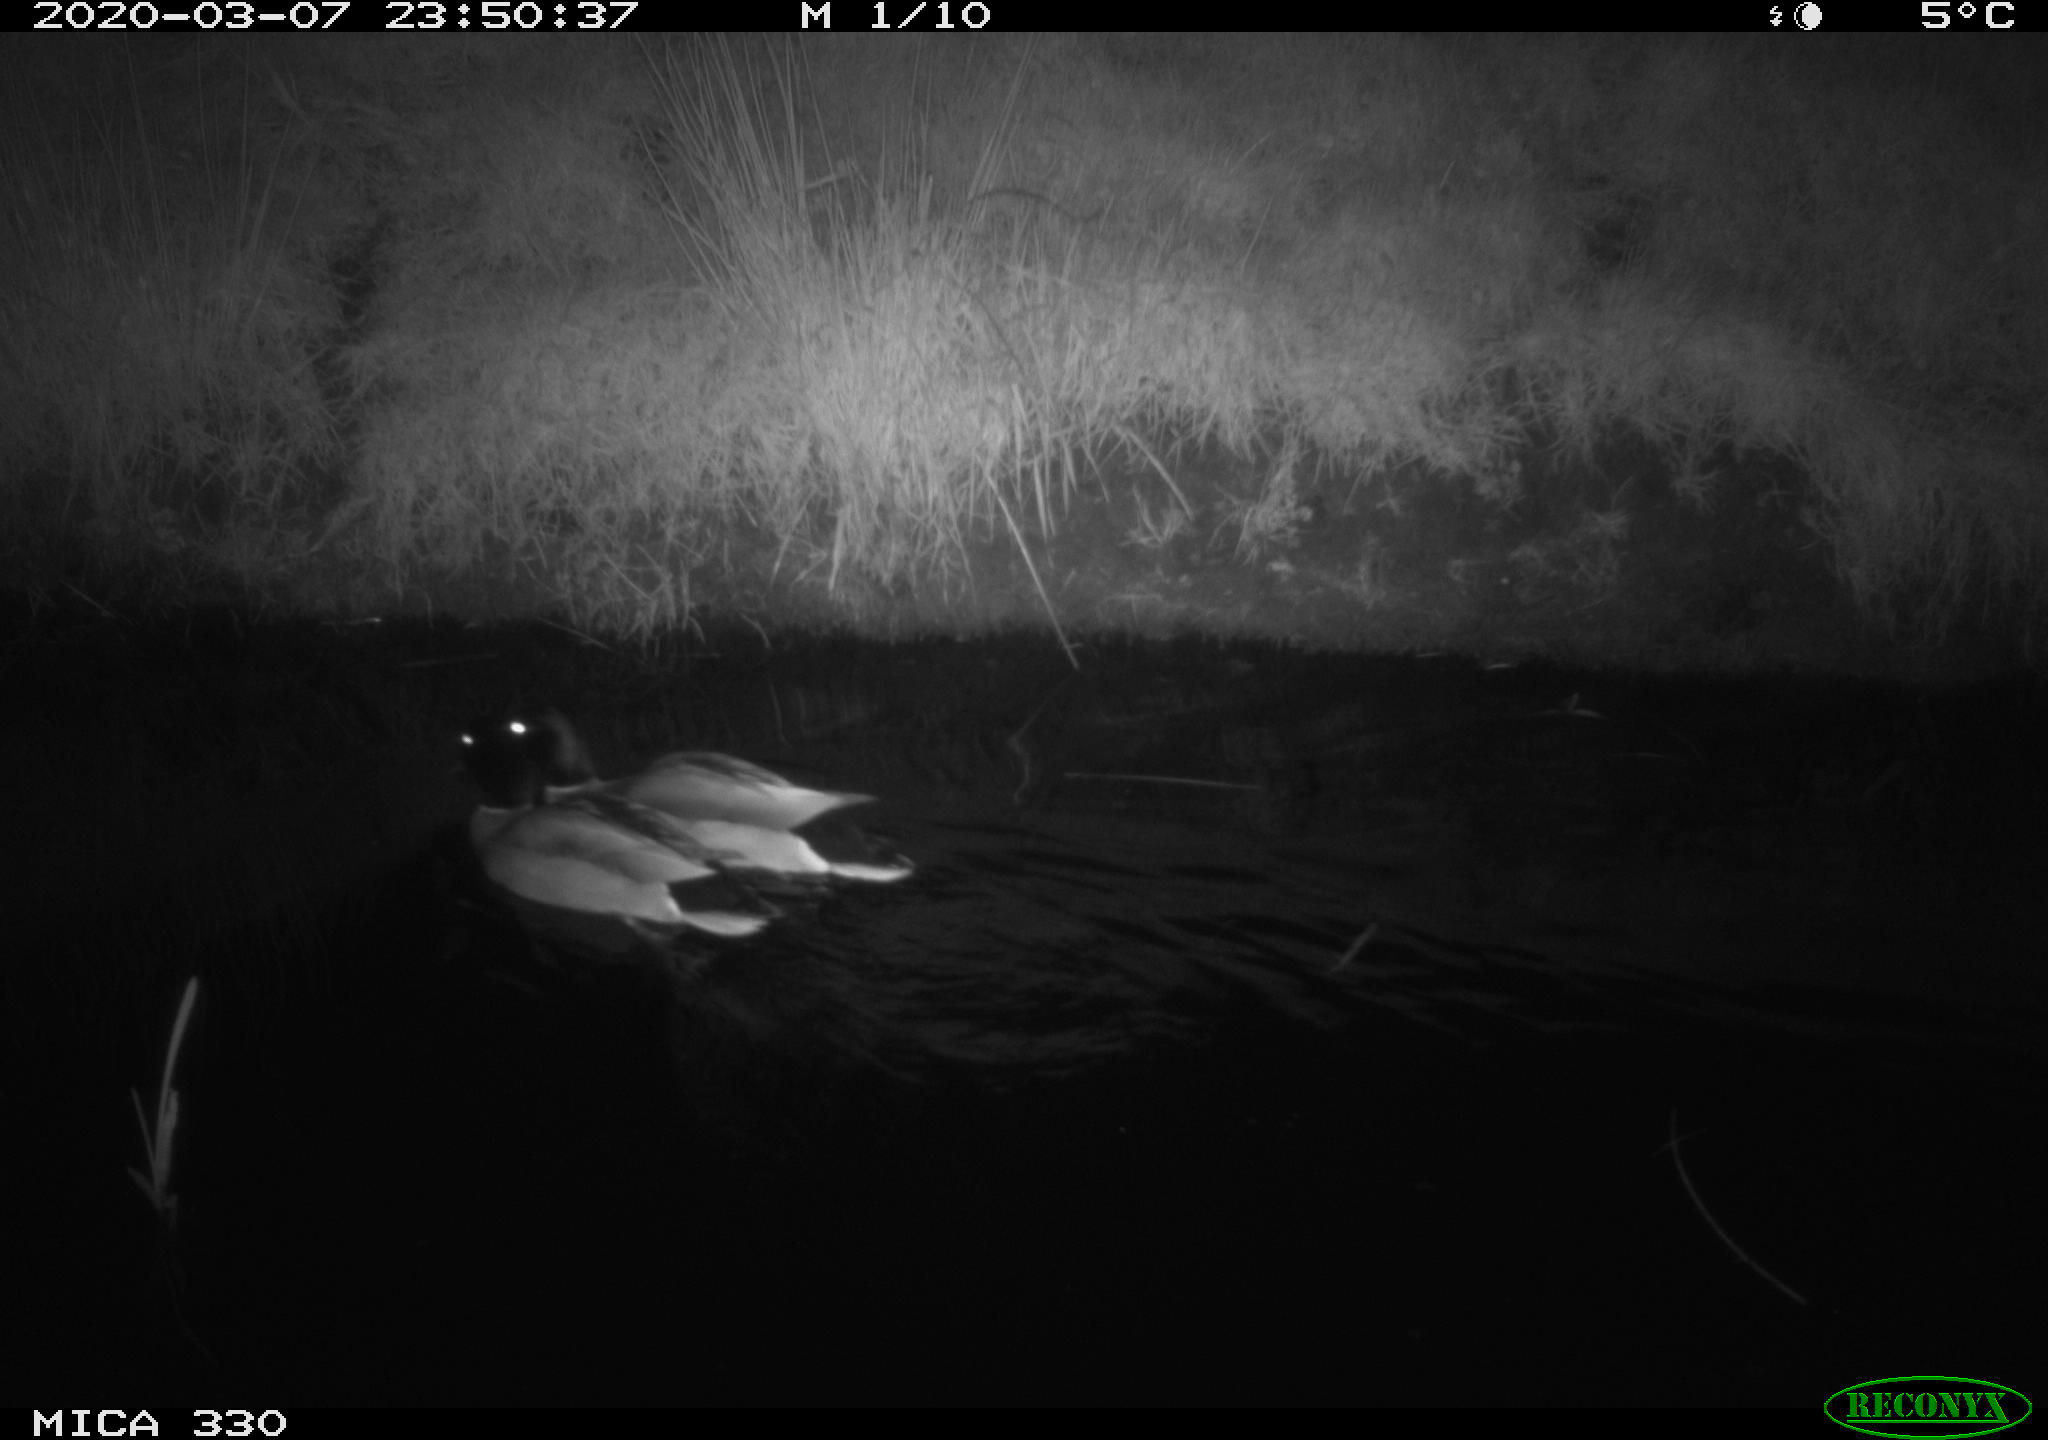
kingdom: Animalia
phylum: Chordata
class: Aves
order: Anseriformes
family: Anatidae
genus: Anas
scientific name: Anas platyrhynchos
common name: Mallard
